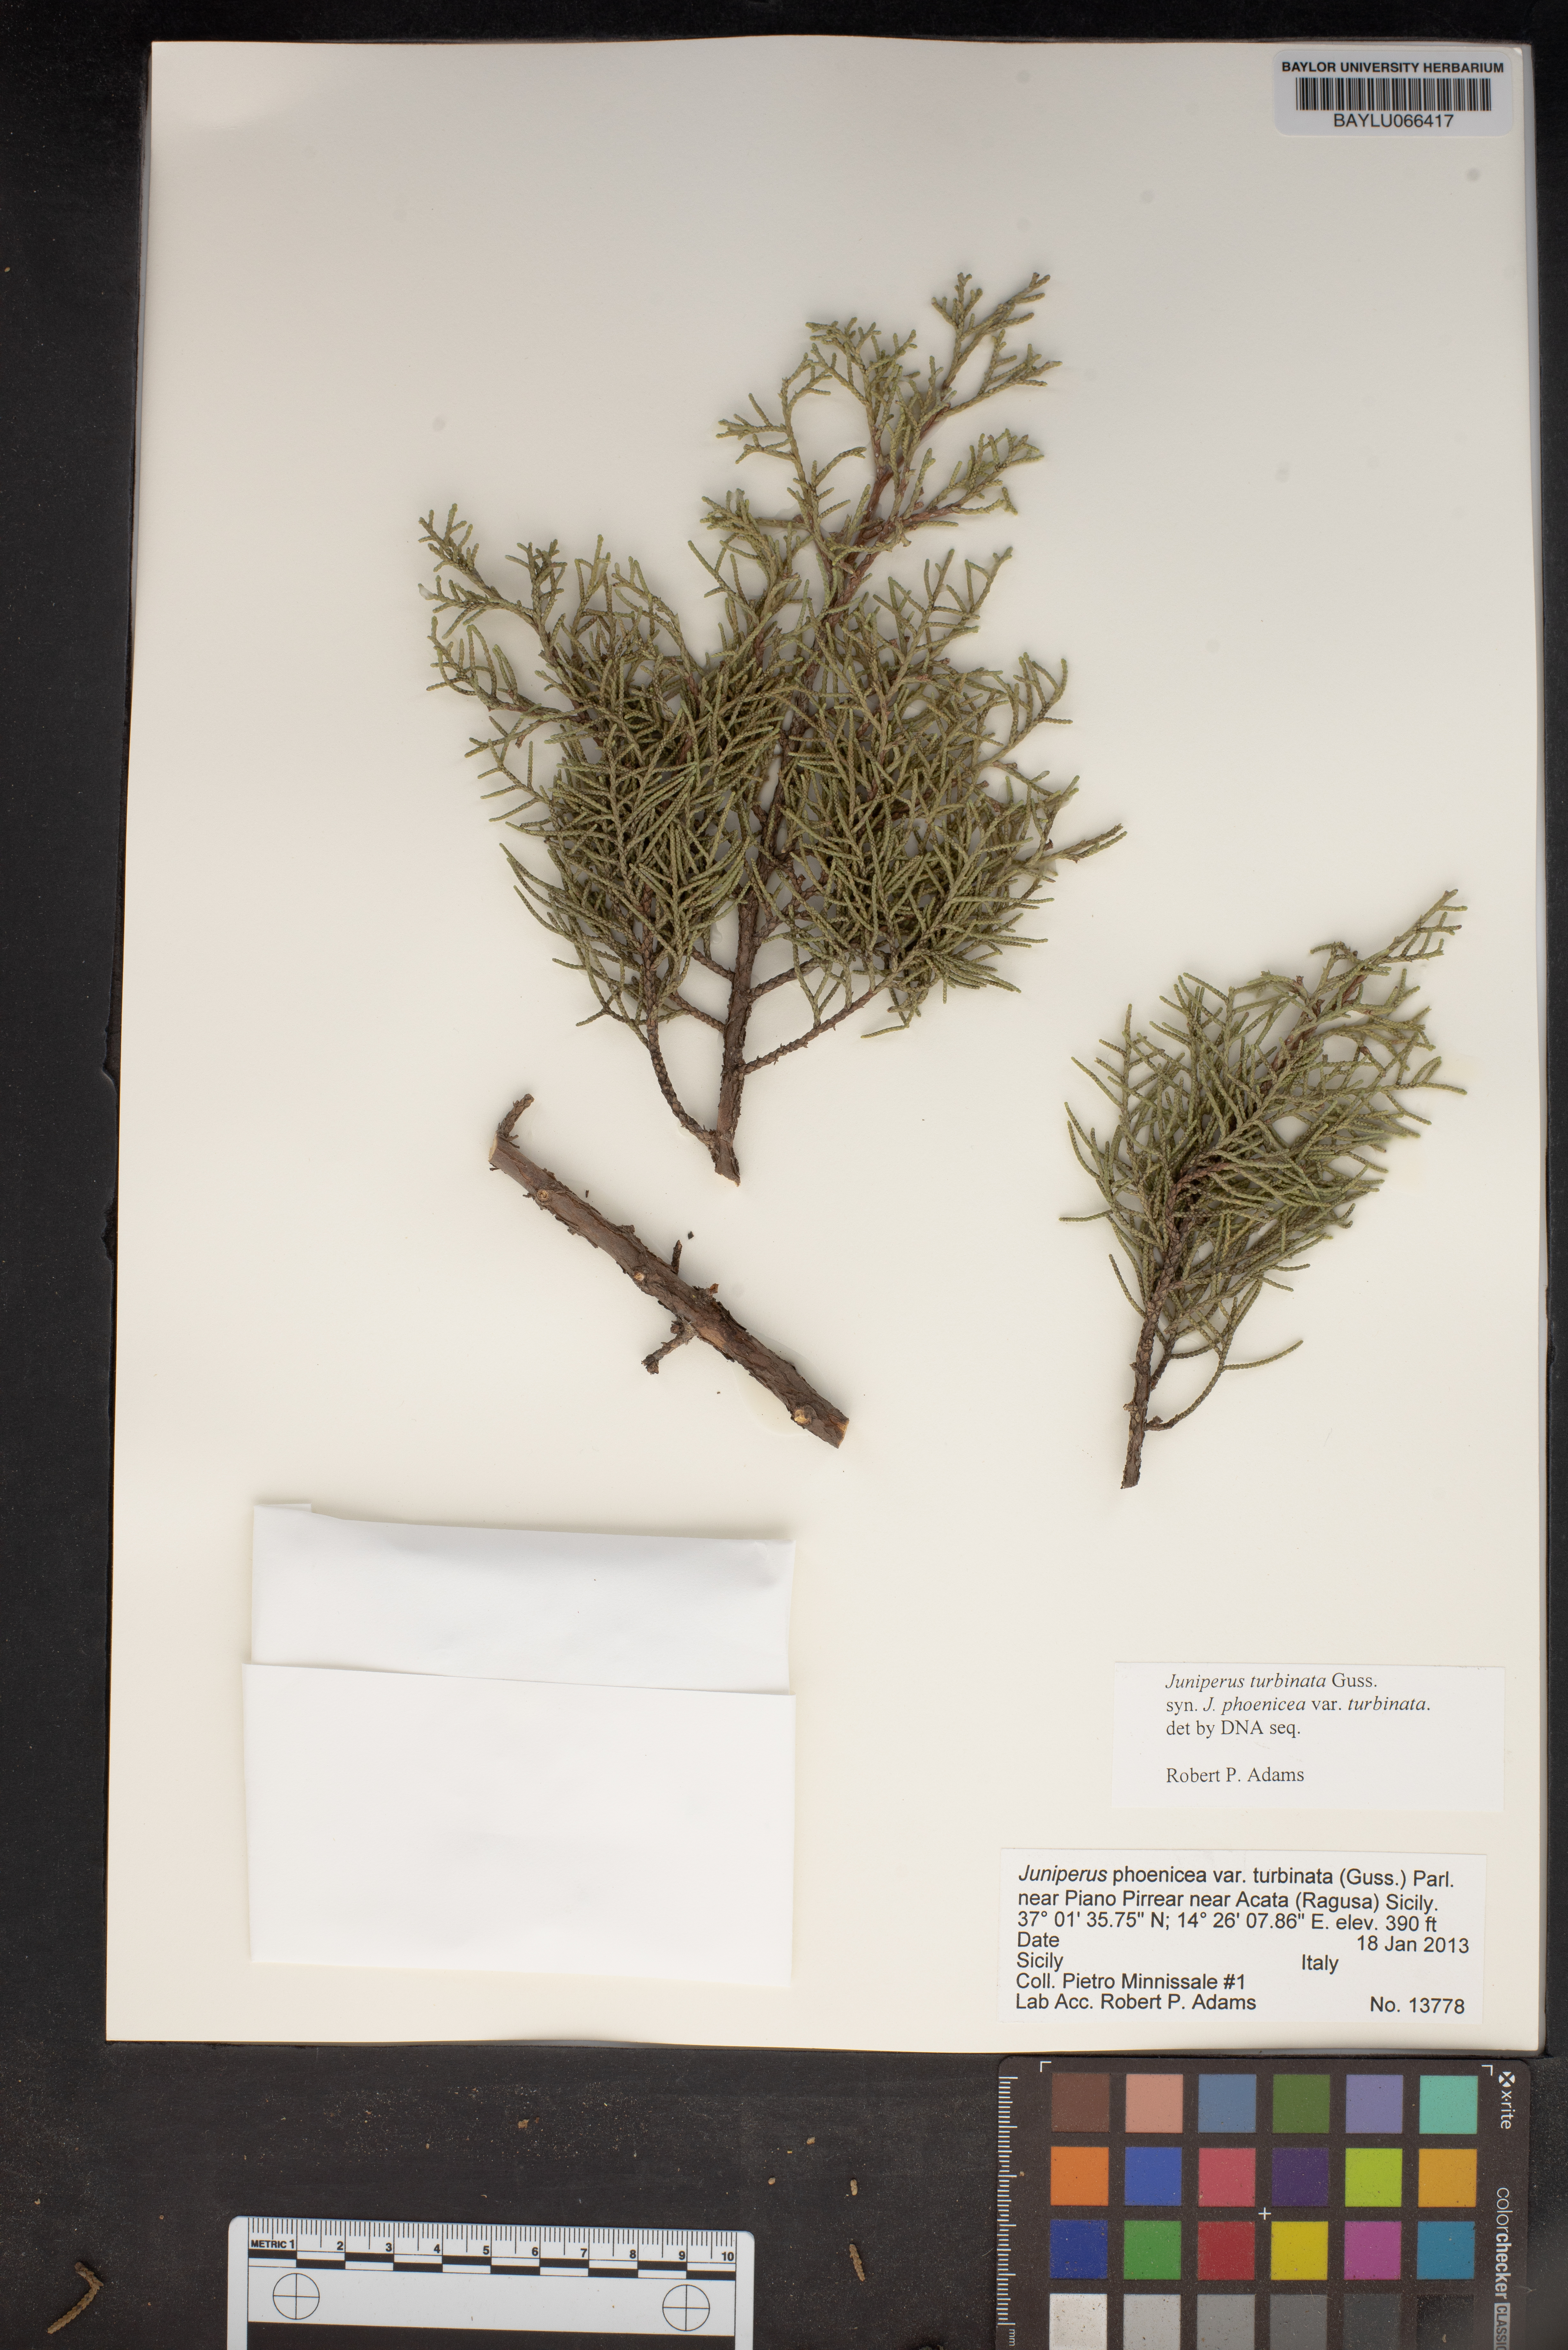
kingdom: Plantae
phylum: Tracheophyta
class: Pinopsida
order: Pinales
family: Cupressaceae
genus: Juniperus
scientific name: Juniperus phoenicea
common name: Phoenician juniper
